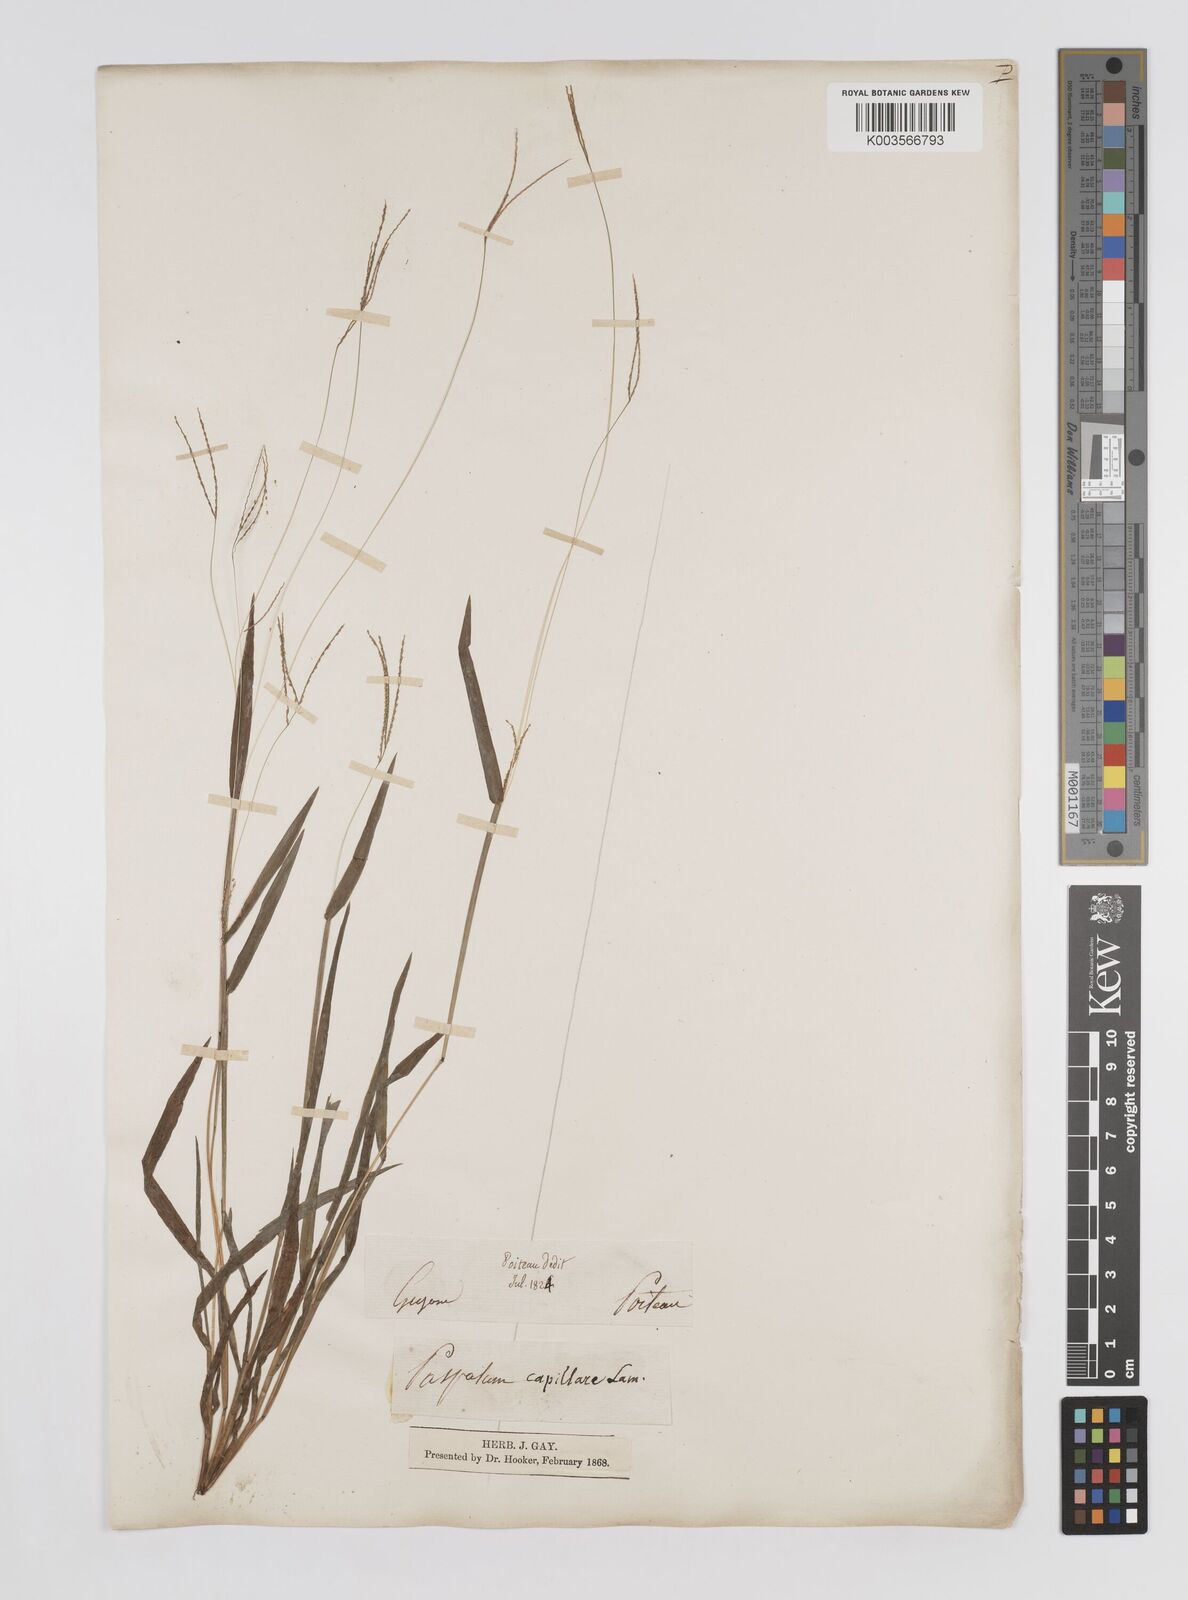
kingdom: Plantae
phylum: Tracheophyta
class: Liliopsida
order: Poales
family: Poaceae
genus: Axonopus
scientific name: Axonopus capillaris
